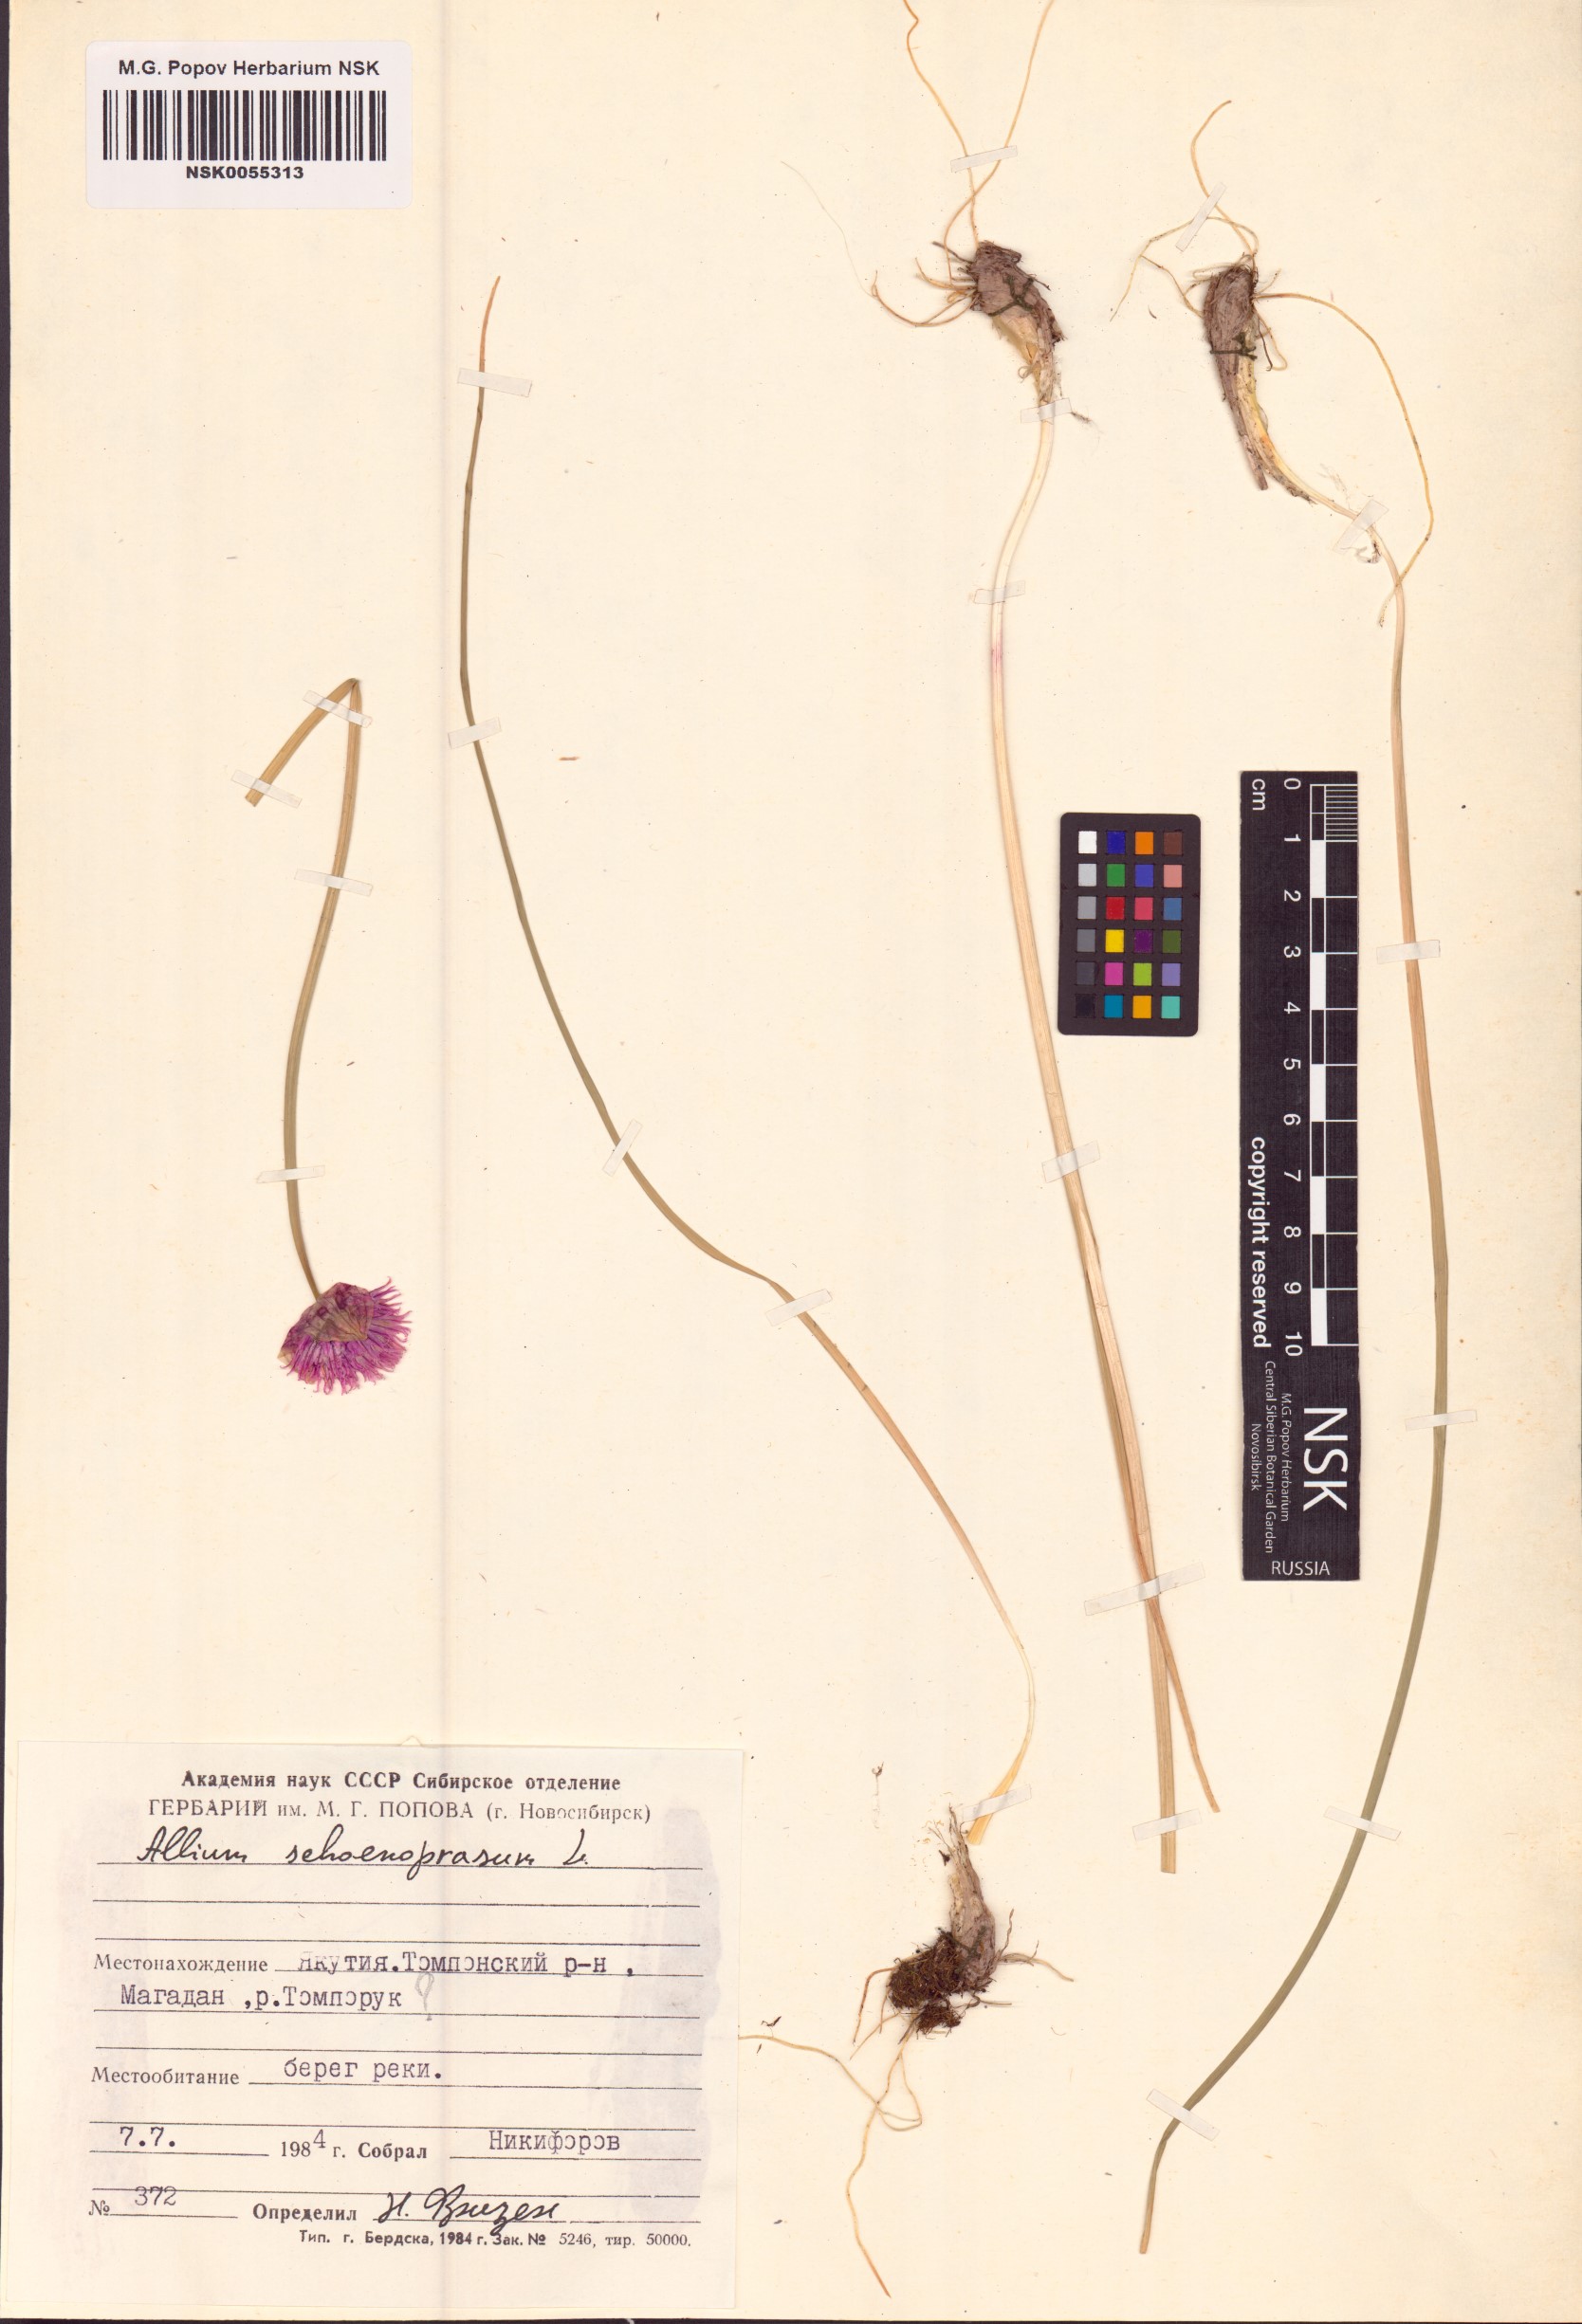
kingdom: Plantae
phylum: Tracheophyta
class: Liliopsida
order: Asparagales
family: Amaryllidaceae
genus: Allium
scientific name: Allium schoenoprasum
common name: Chives
